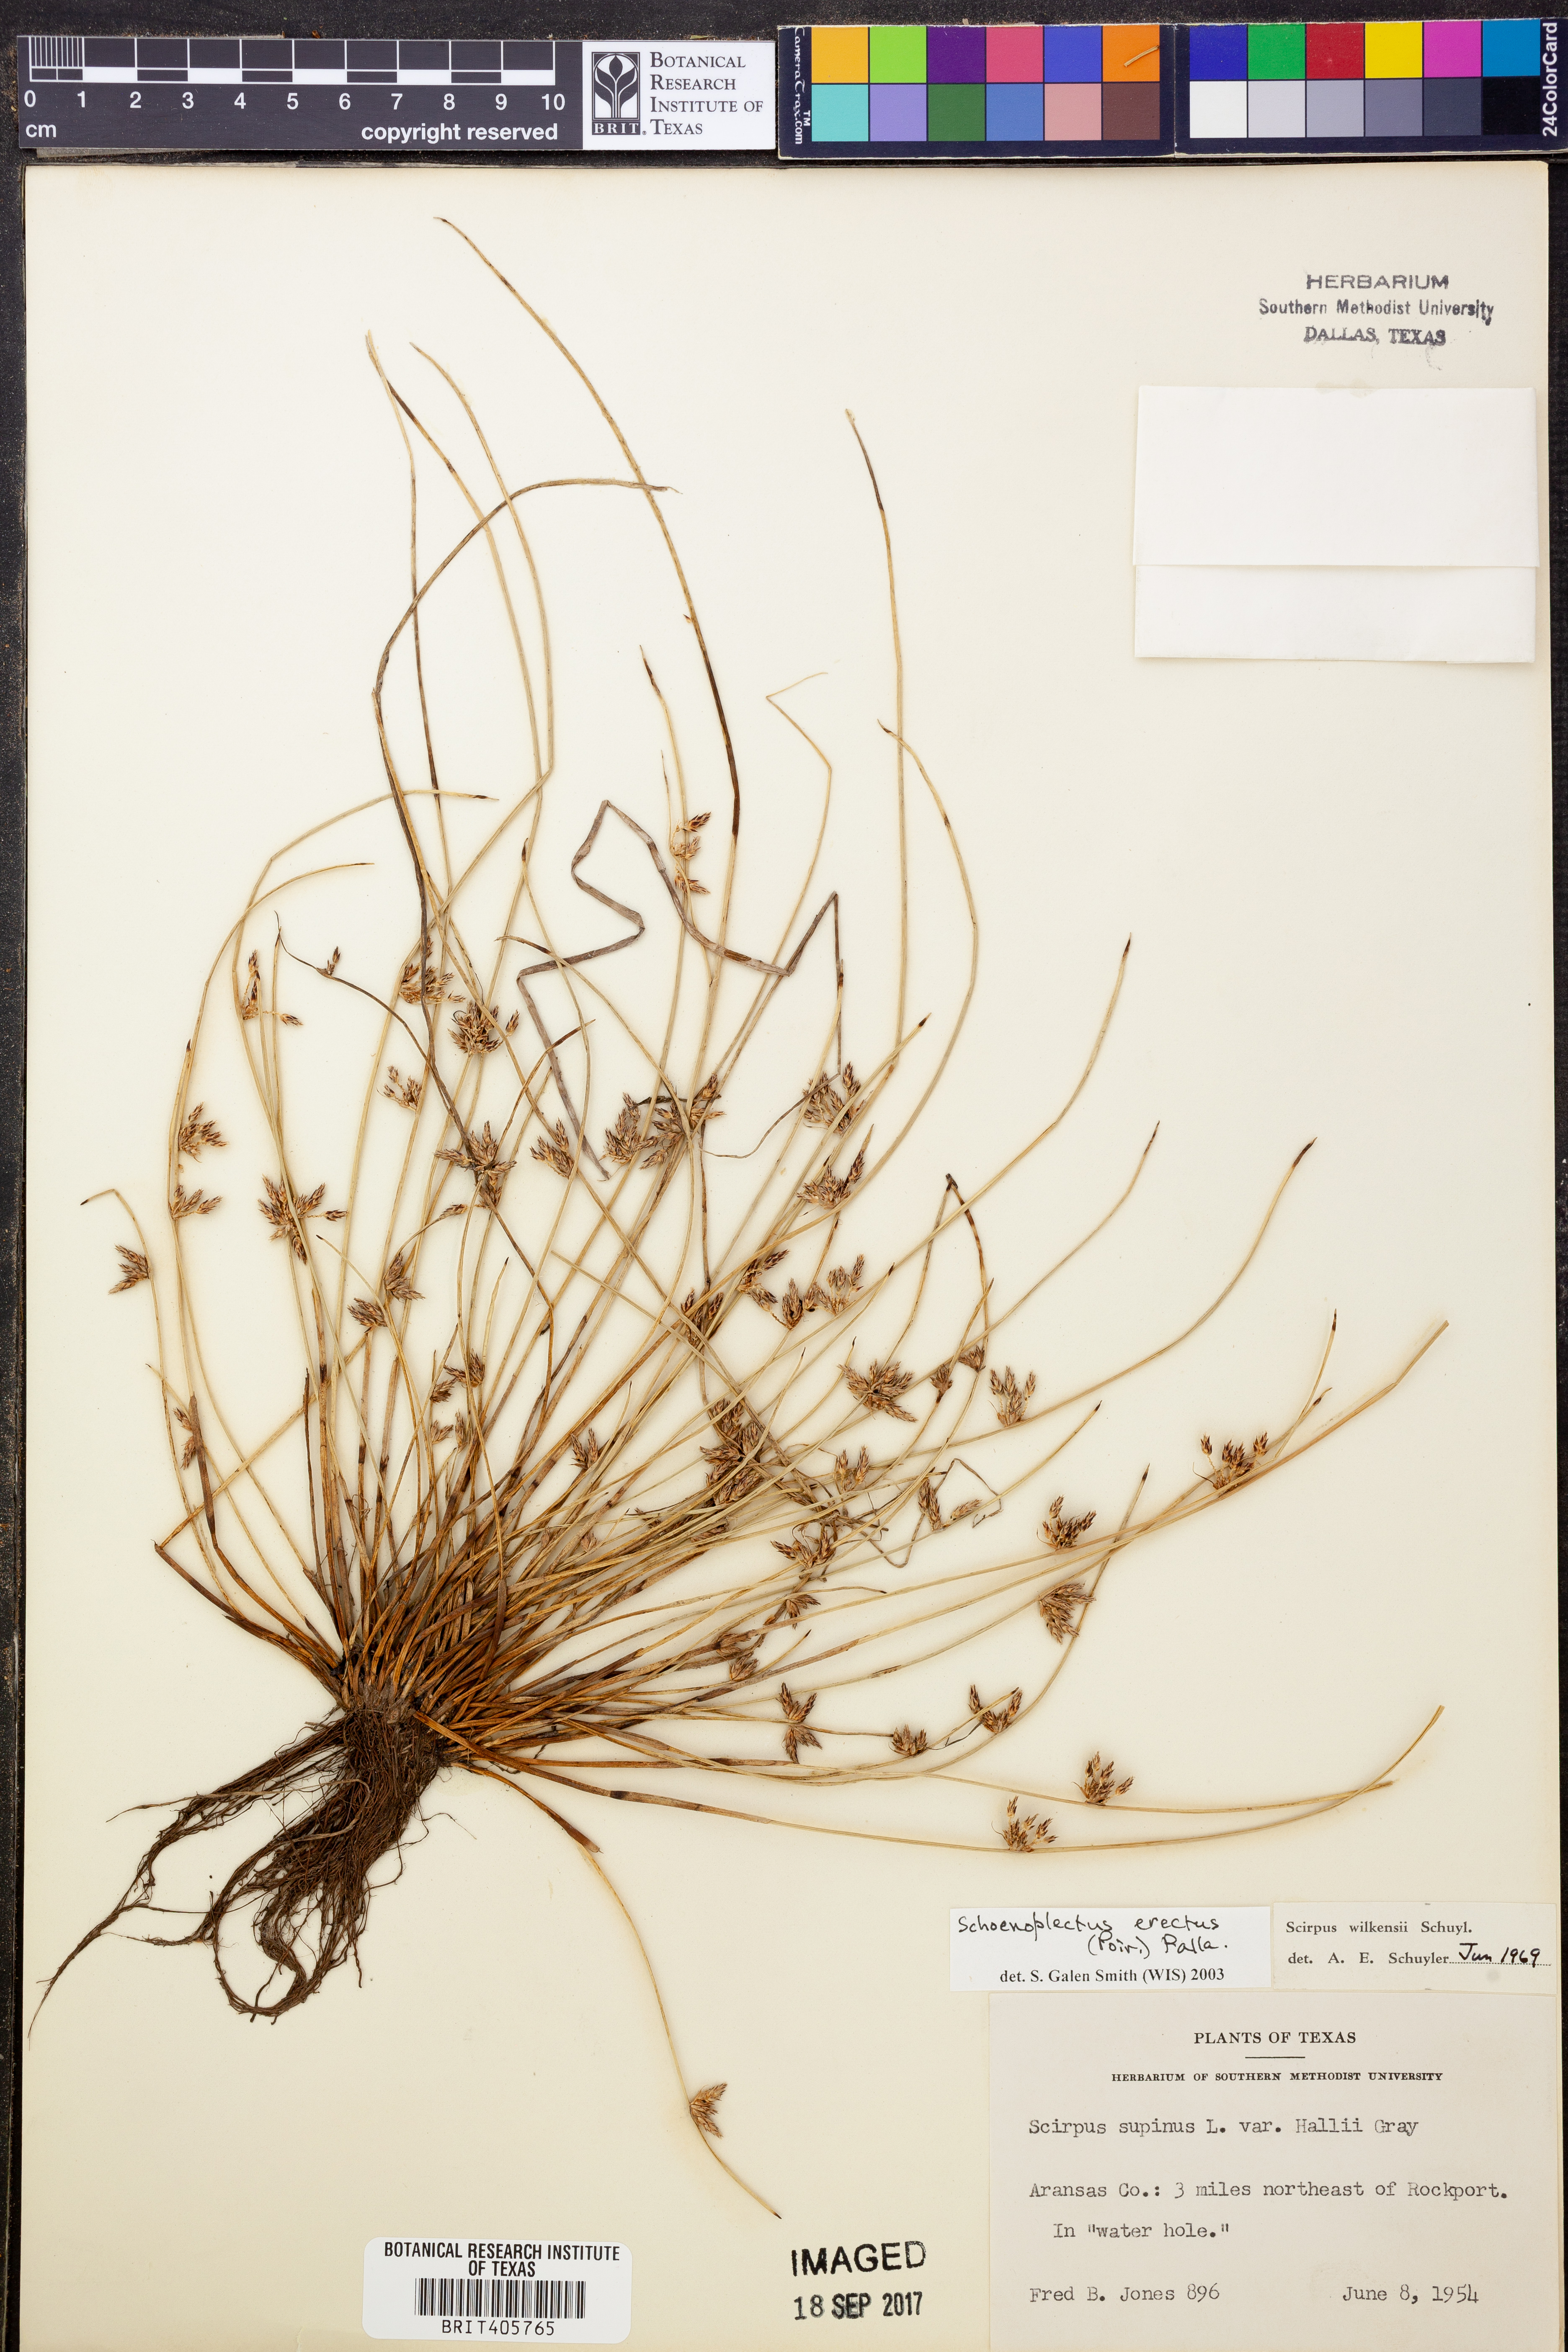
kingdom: Plantae
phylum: Tracheophyta
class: Liliopsida
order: Poales
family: Cyperaceae
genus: Schoenoplectiella
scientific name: Schoenoplectiella erecta
